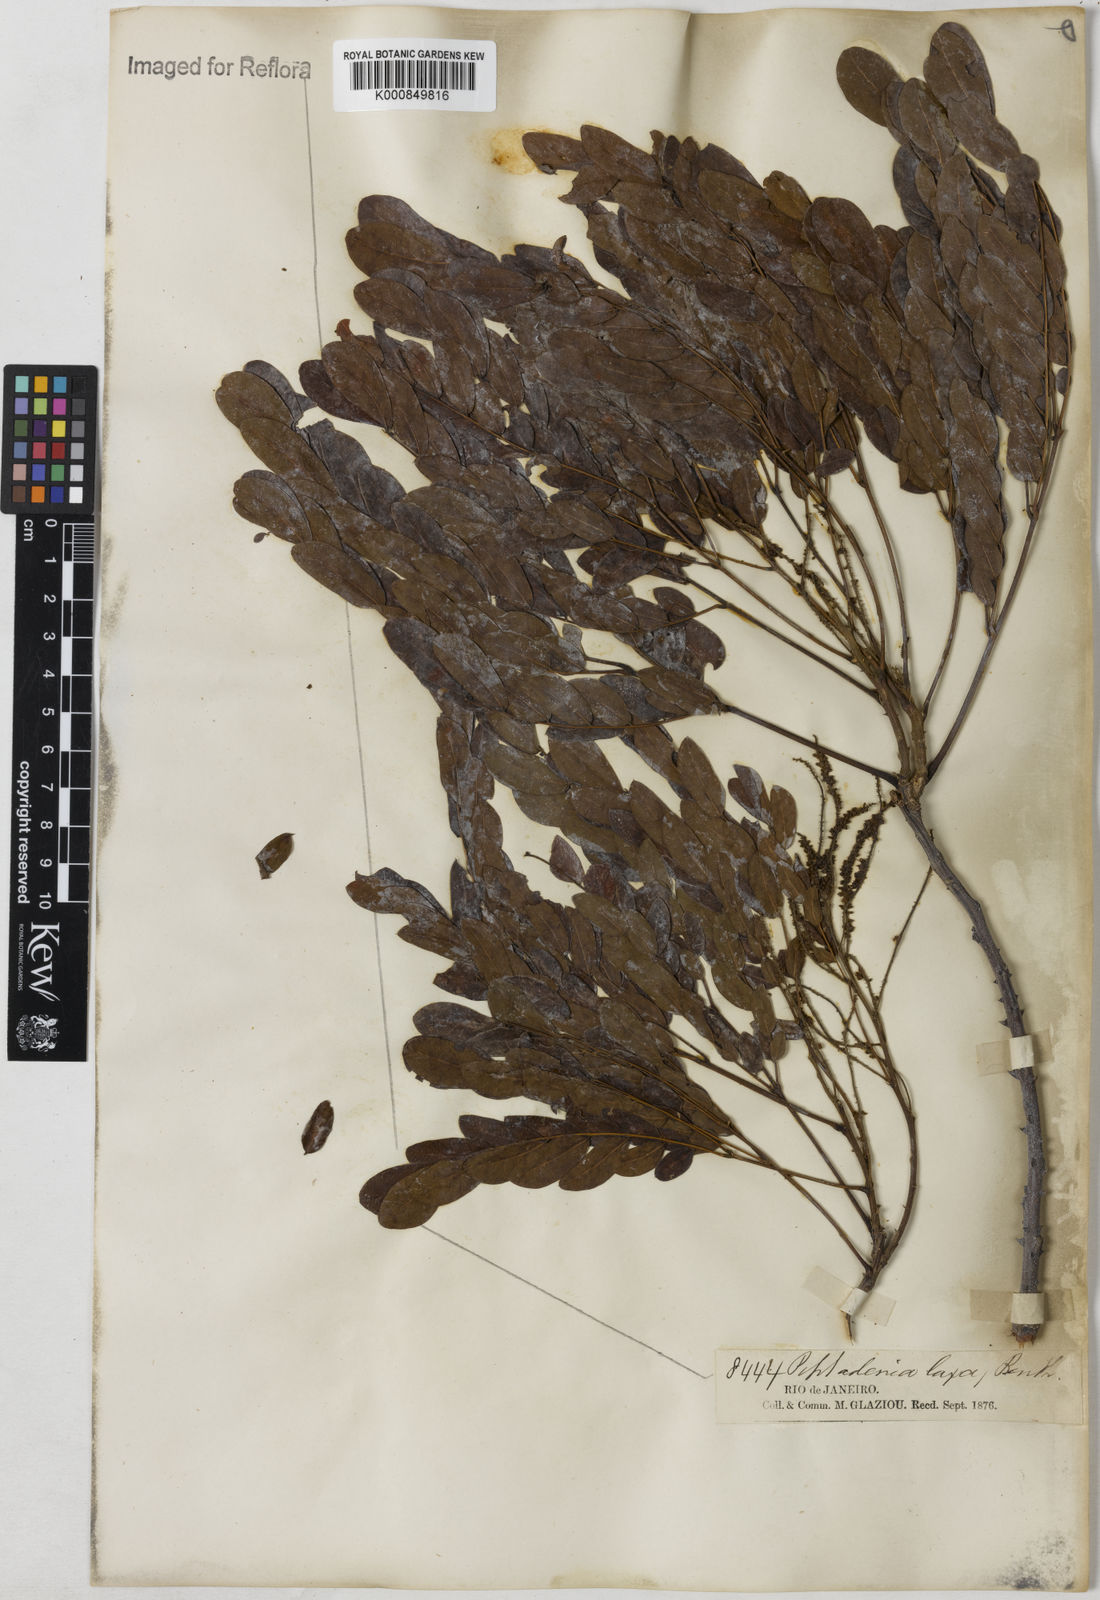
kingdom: Plantae
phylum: Tracheophyta
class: Magnoliopsida
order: Fabales
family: Fabaceae
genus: Piptadenia
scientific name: Piptadenia adiantoides
